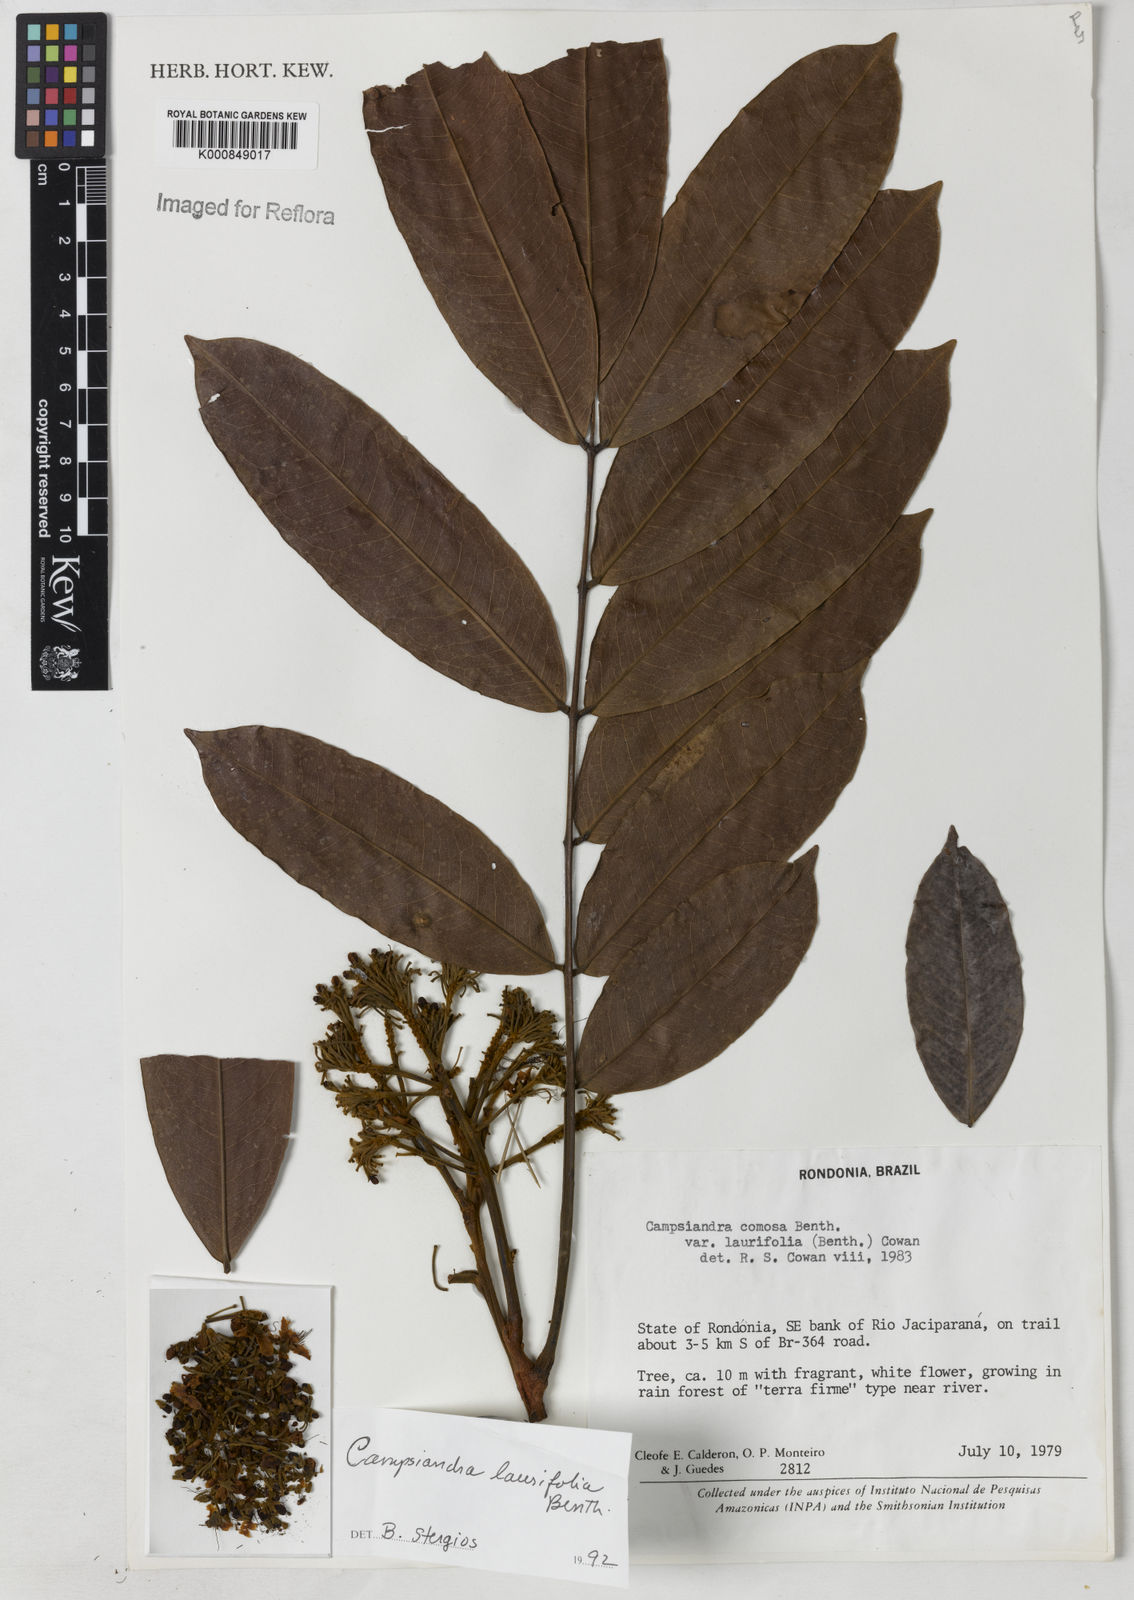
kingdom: Plantae
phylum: Tracheophyta
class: Magnoliopsida
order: Fabales
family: Fabaceae
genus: Campsiandra
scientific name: Campsiandra laurifolia
